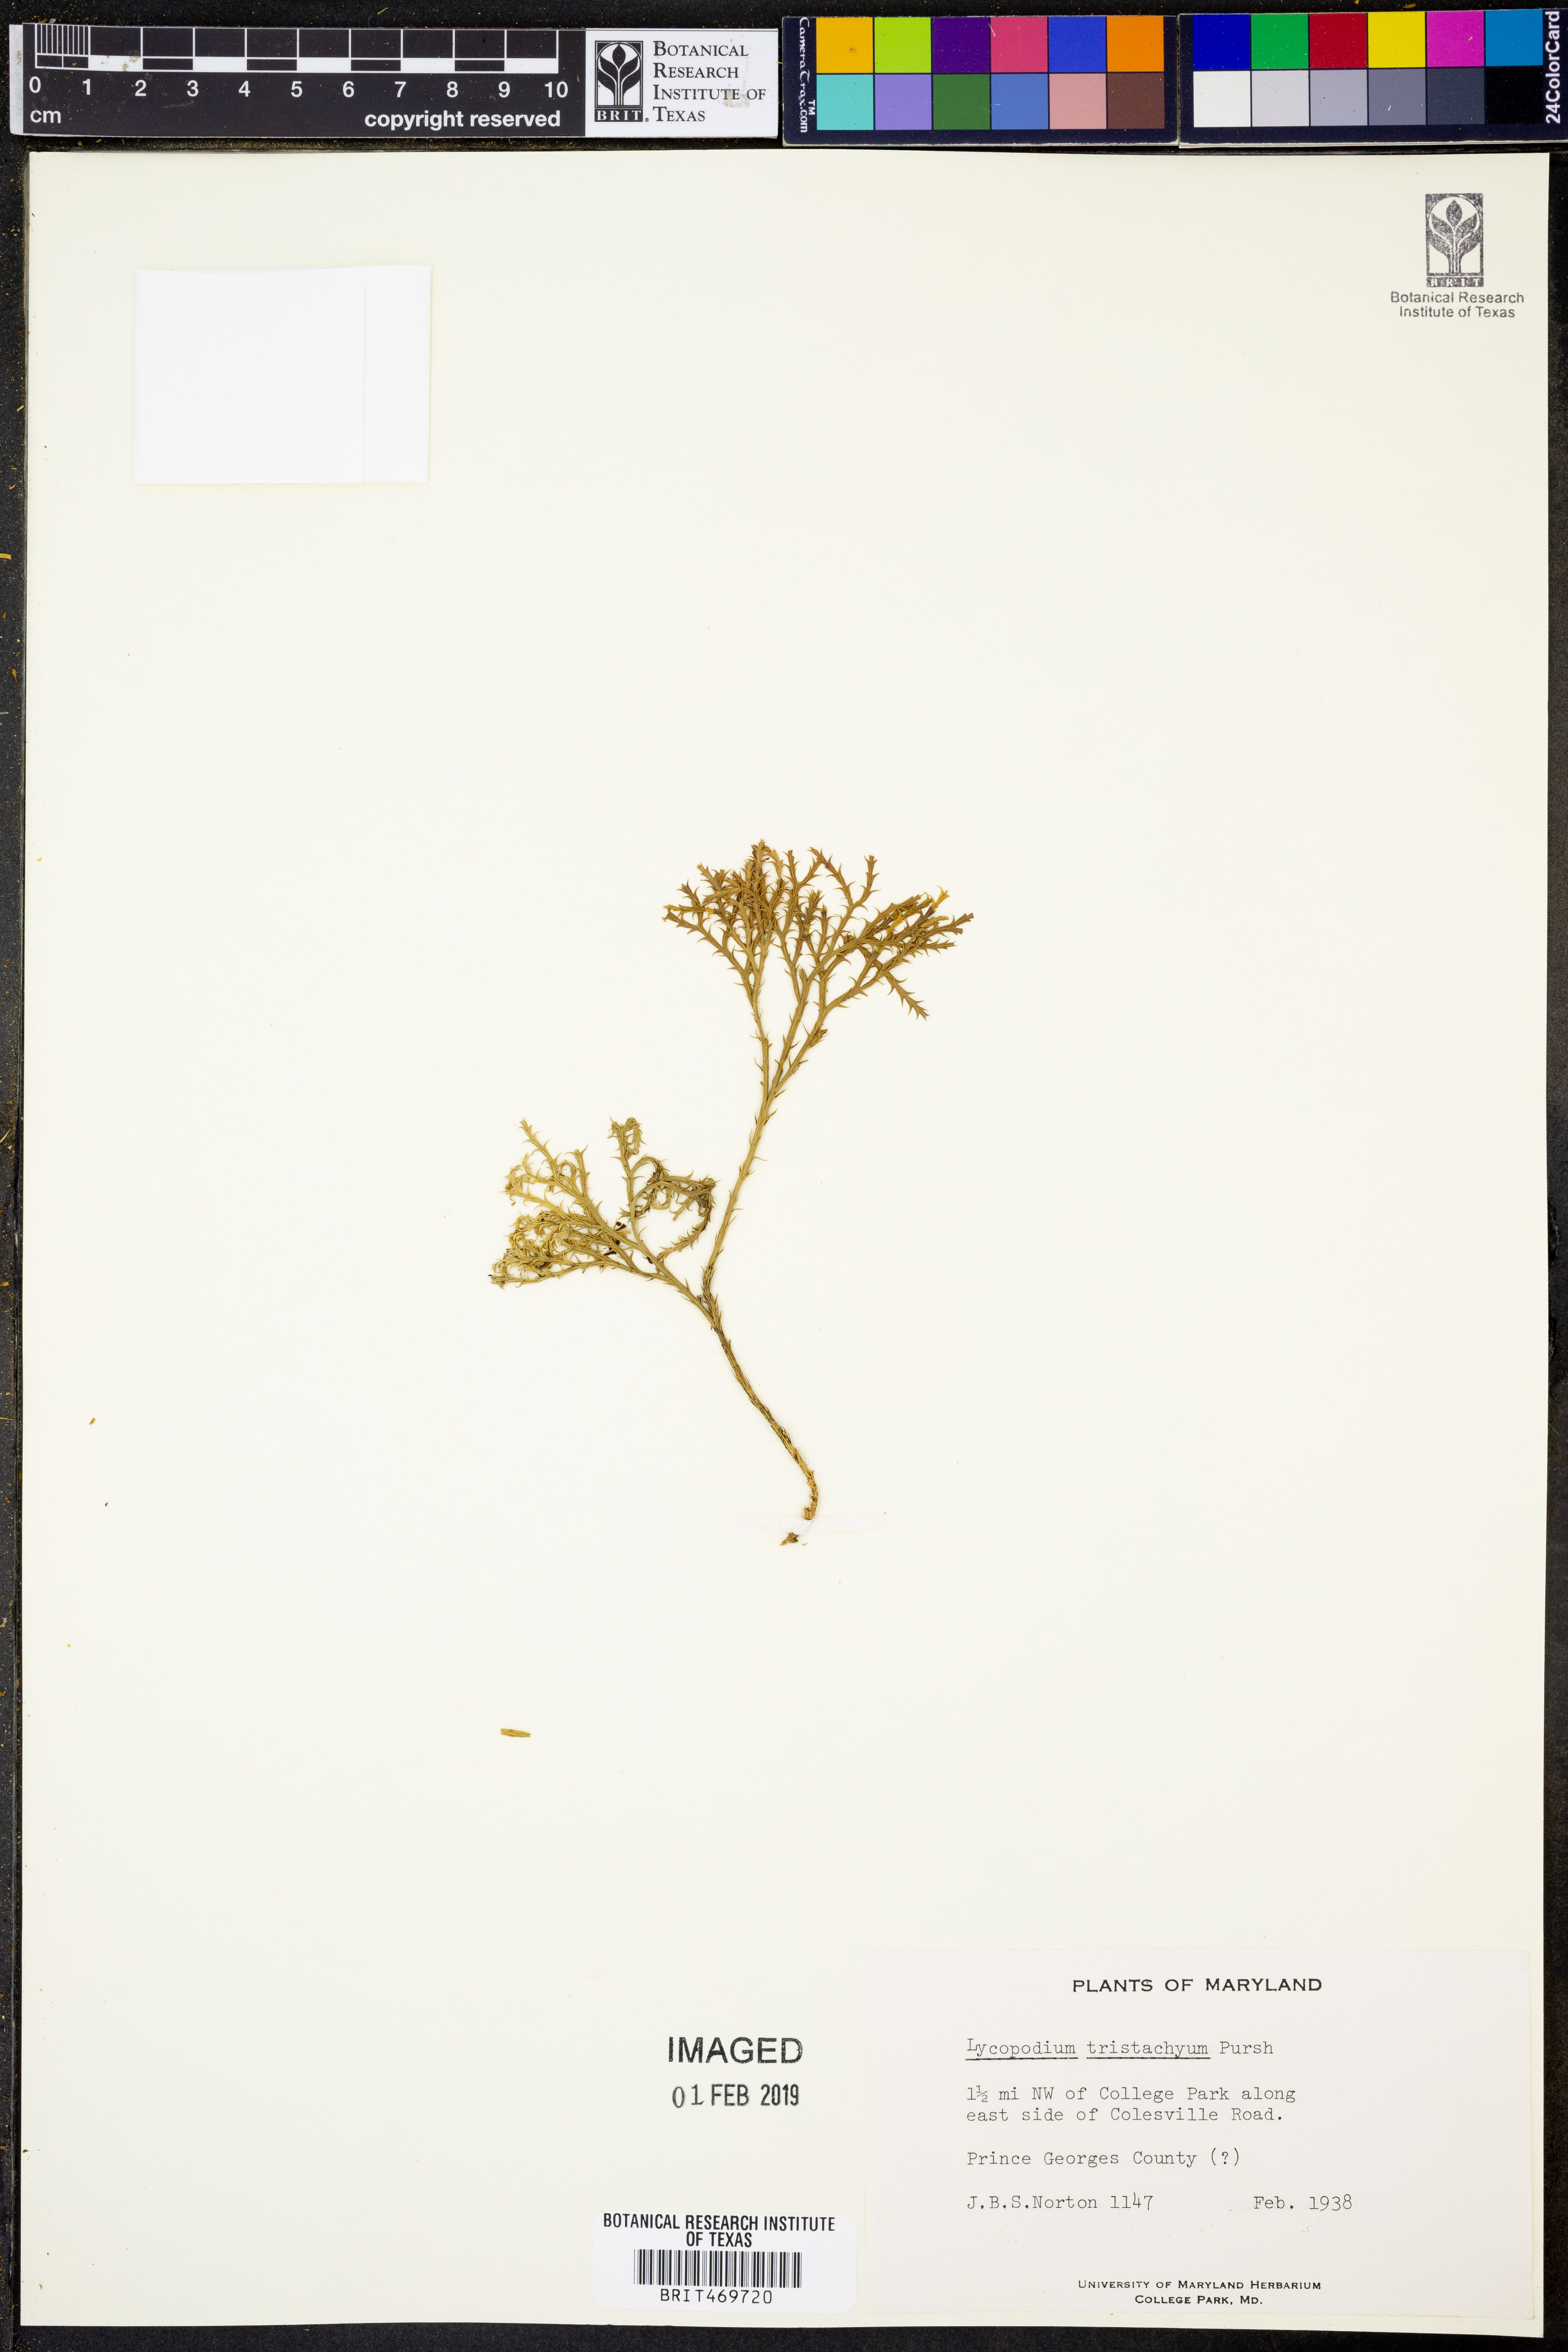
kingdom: Plantae
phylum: Tracheophyta
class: Lycopodiopsida
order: Lycopodiales
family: Lycopodiaceae
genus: Diphasiastrum
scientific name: Diphasiastrum tristachyum
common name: Blue ground-cedar
